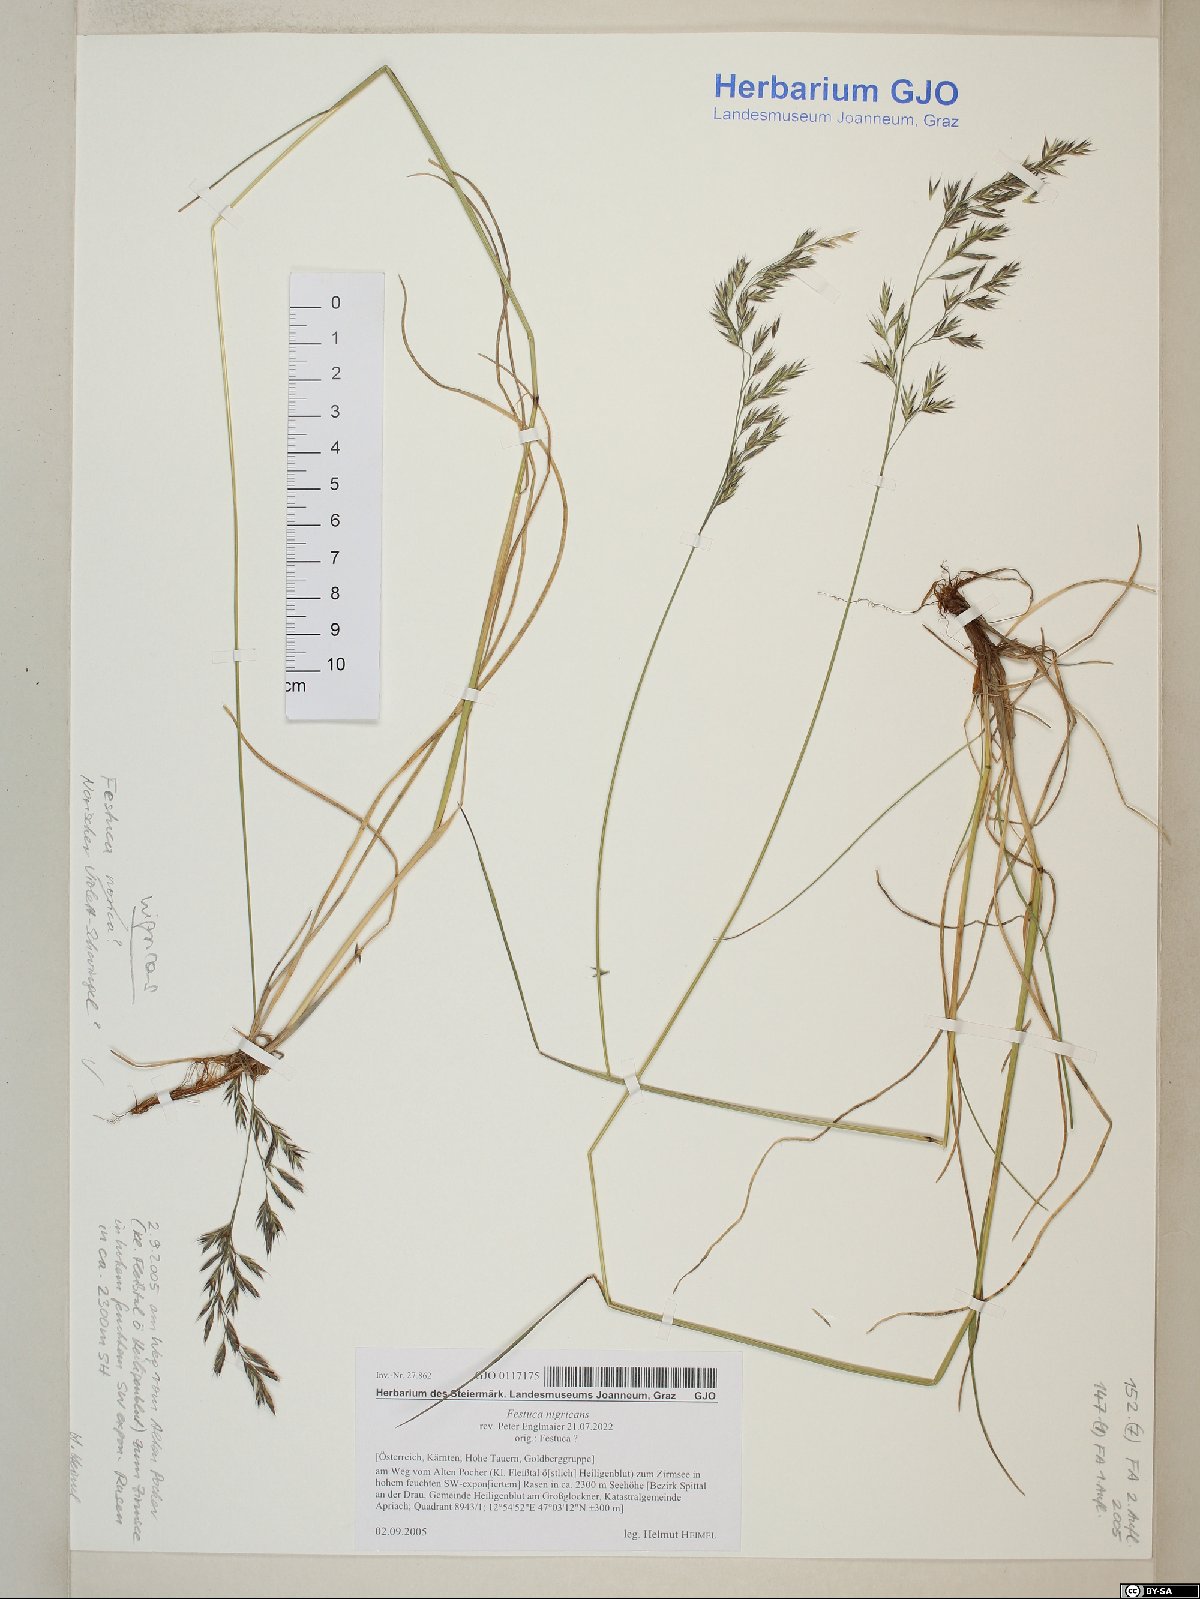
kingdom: Plantae
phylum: Tracheophyta
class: Liliopsida
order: Poales
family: Poaceae
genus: Festuca
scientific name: Festuca violacea
